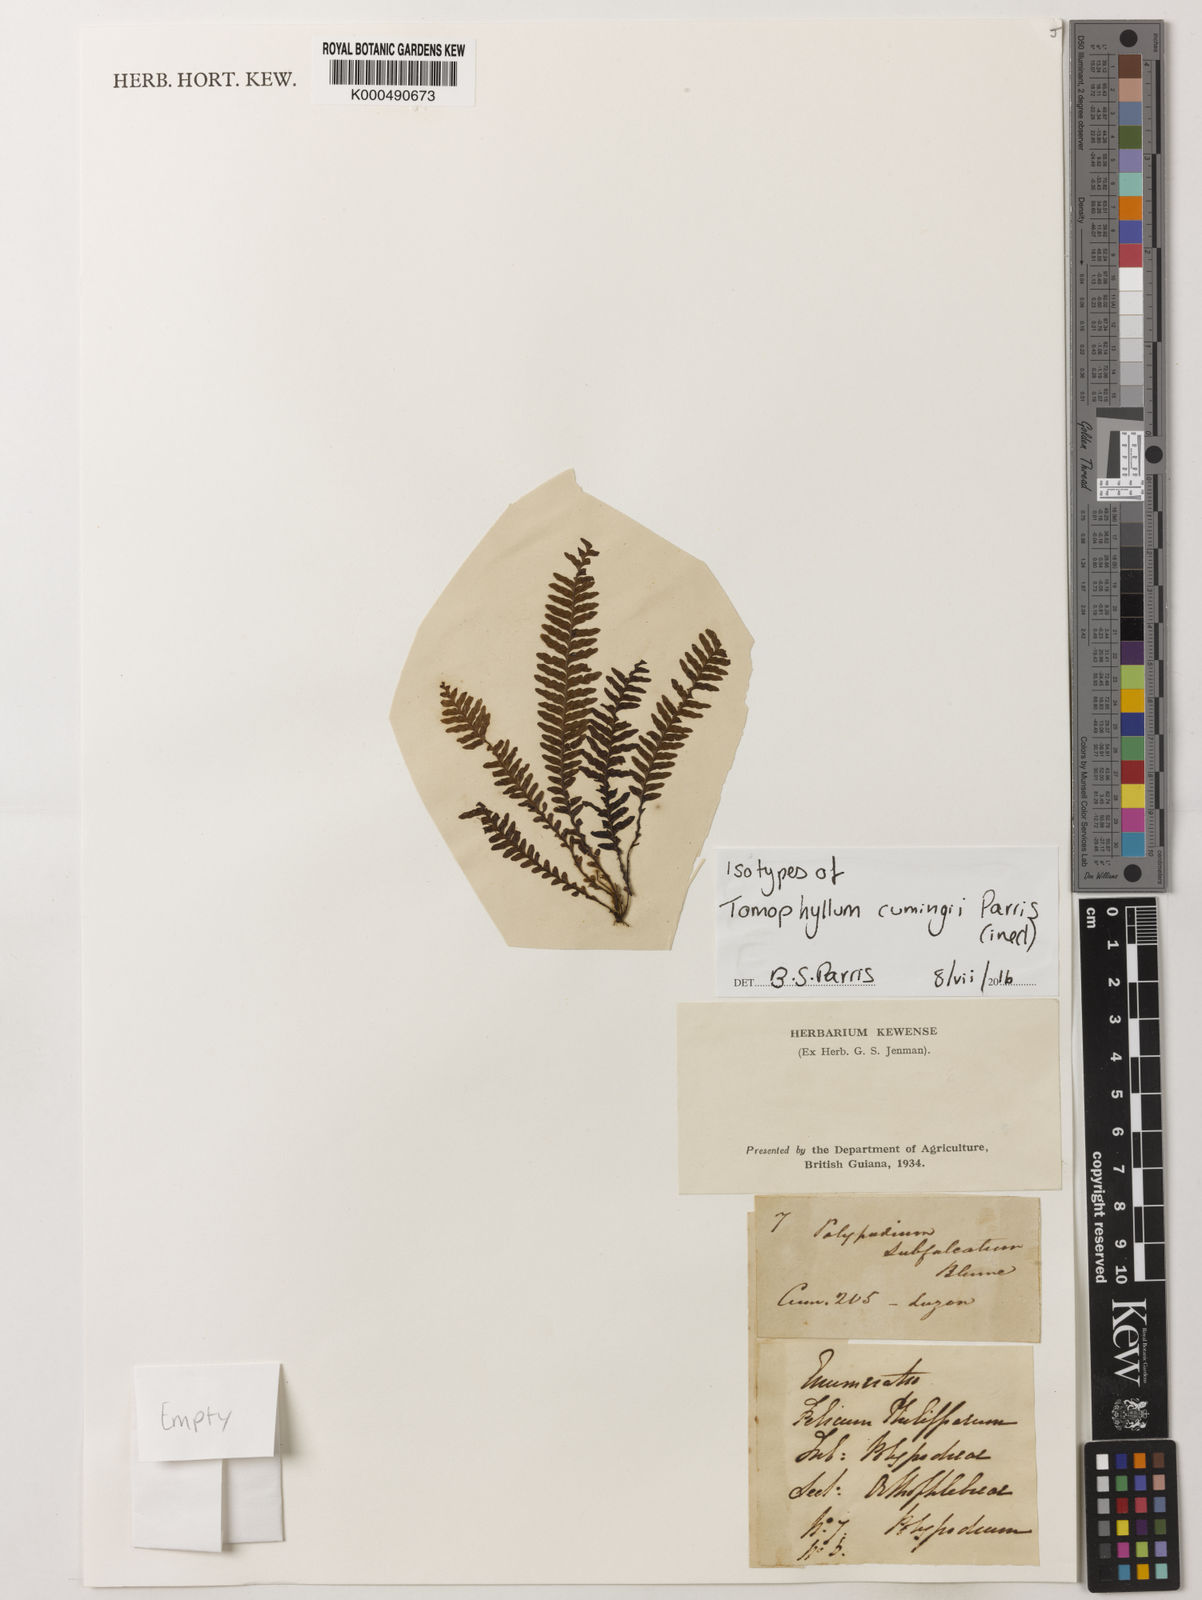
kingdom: Plantae
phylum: Tracheophyta
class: Polypodiopsida
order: Polypodiales
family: Polypodiaceae
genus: Tomophyllum
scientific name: Tomophyllum
